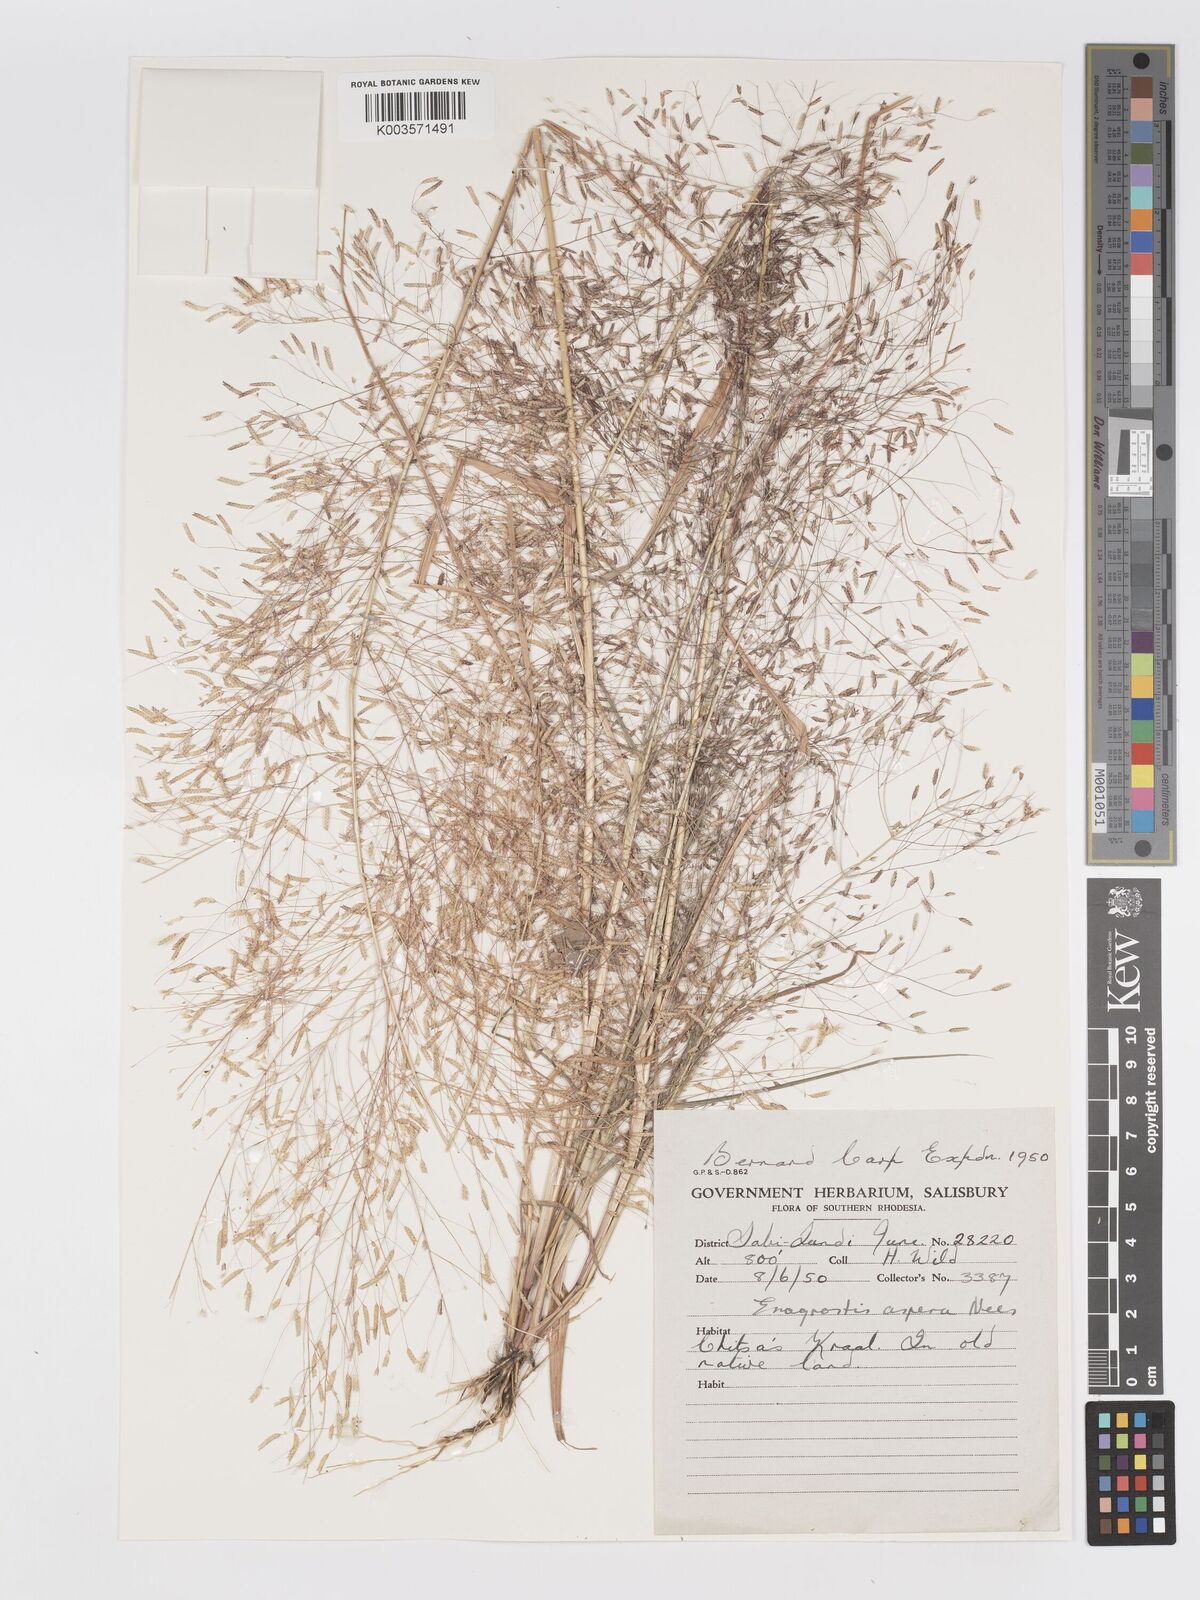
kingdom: Plantae
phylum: Tracheophyta
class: Liliopsida
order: Poales
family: Poaceae
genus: Eragrostis
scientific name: Eragrostis aspera
